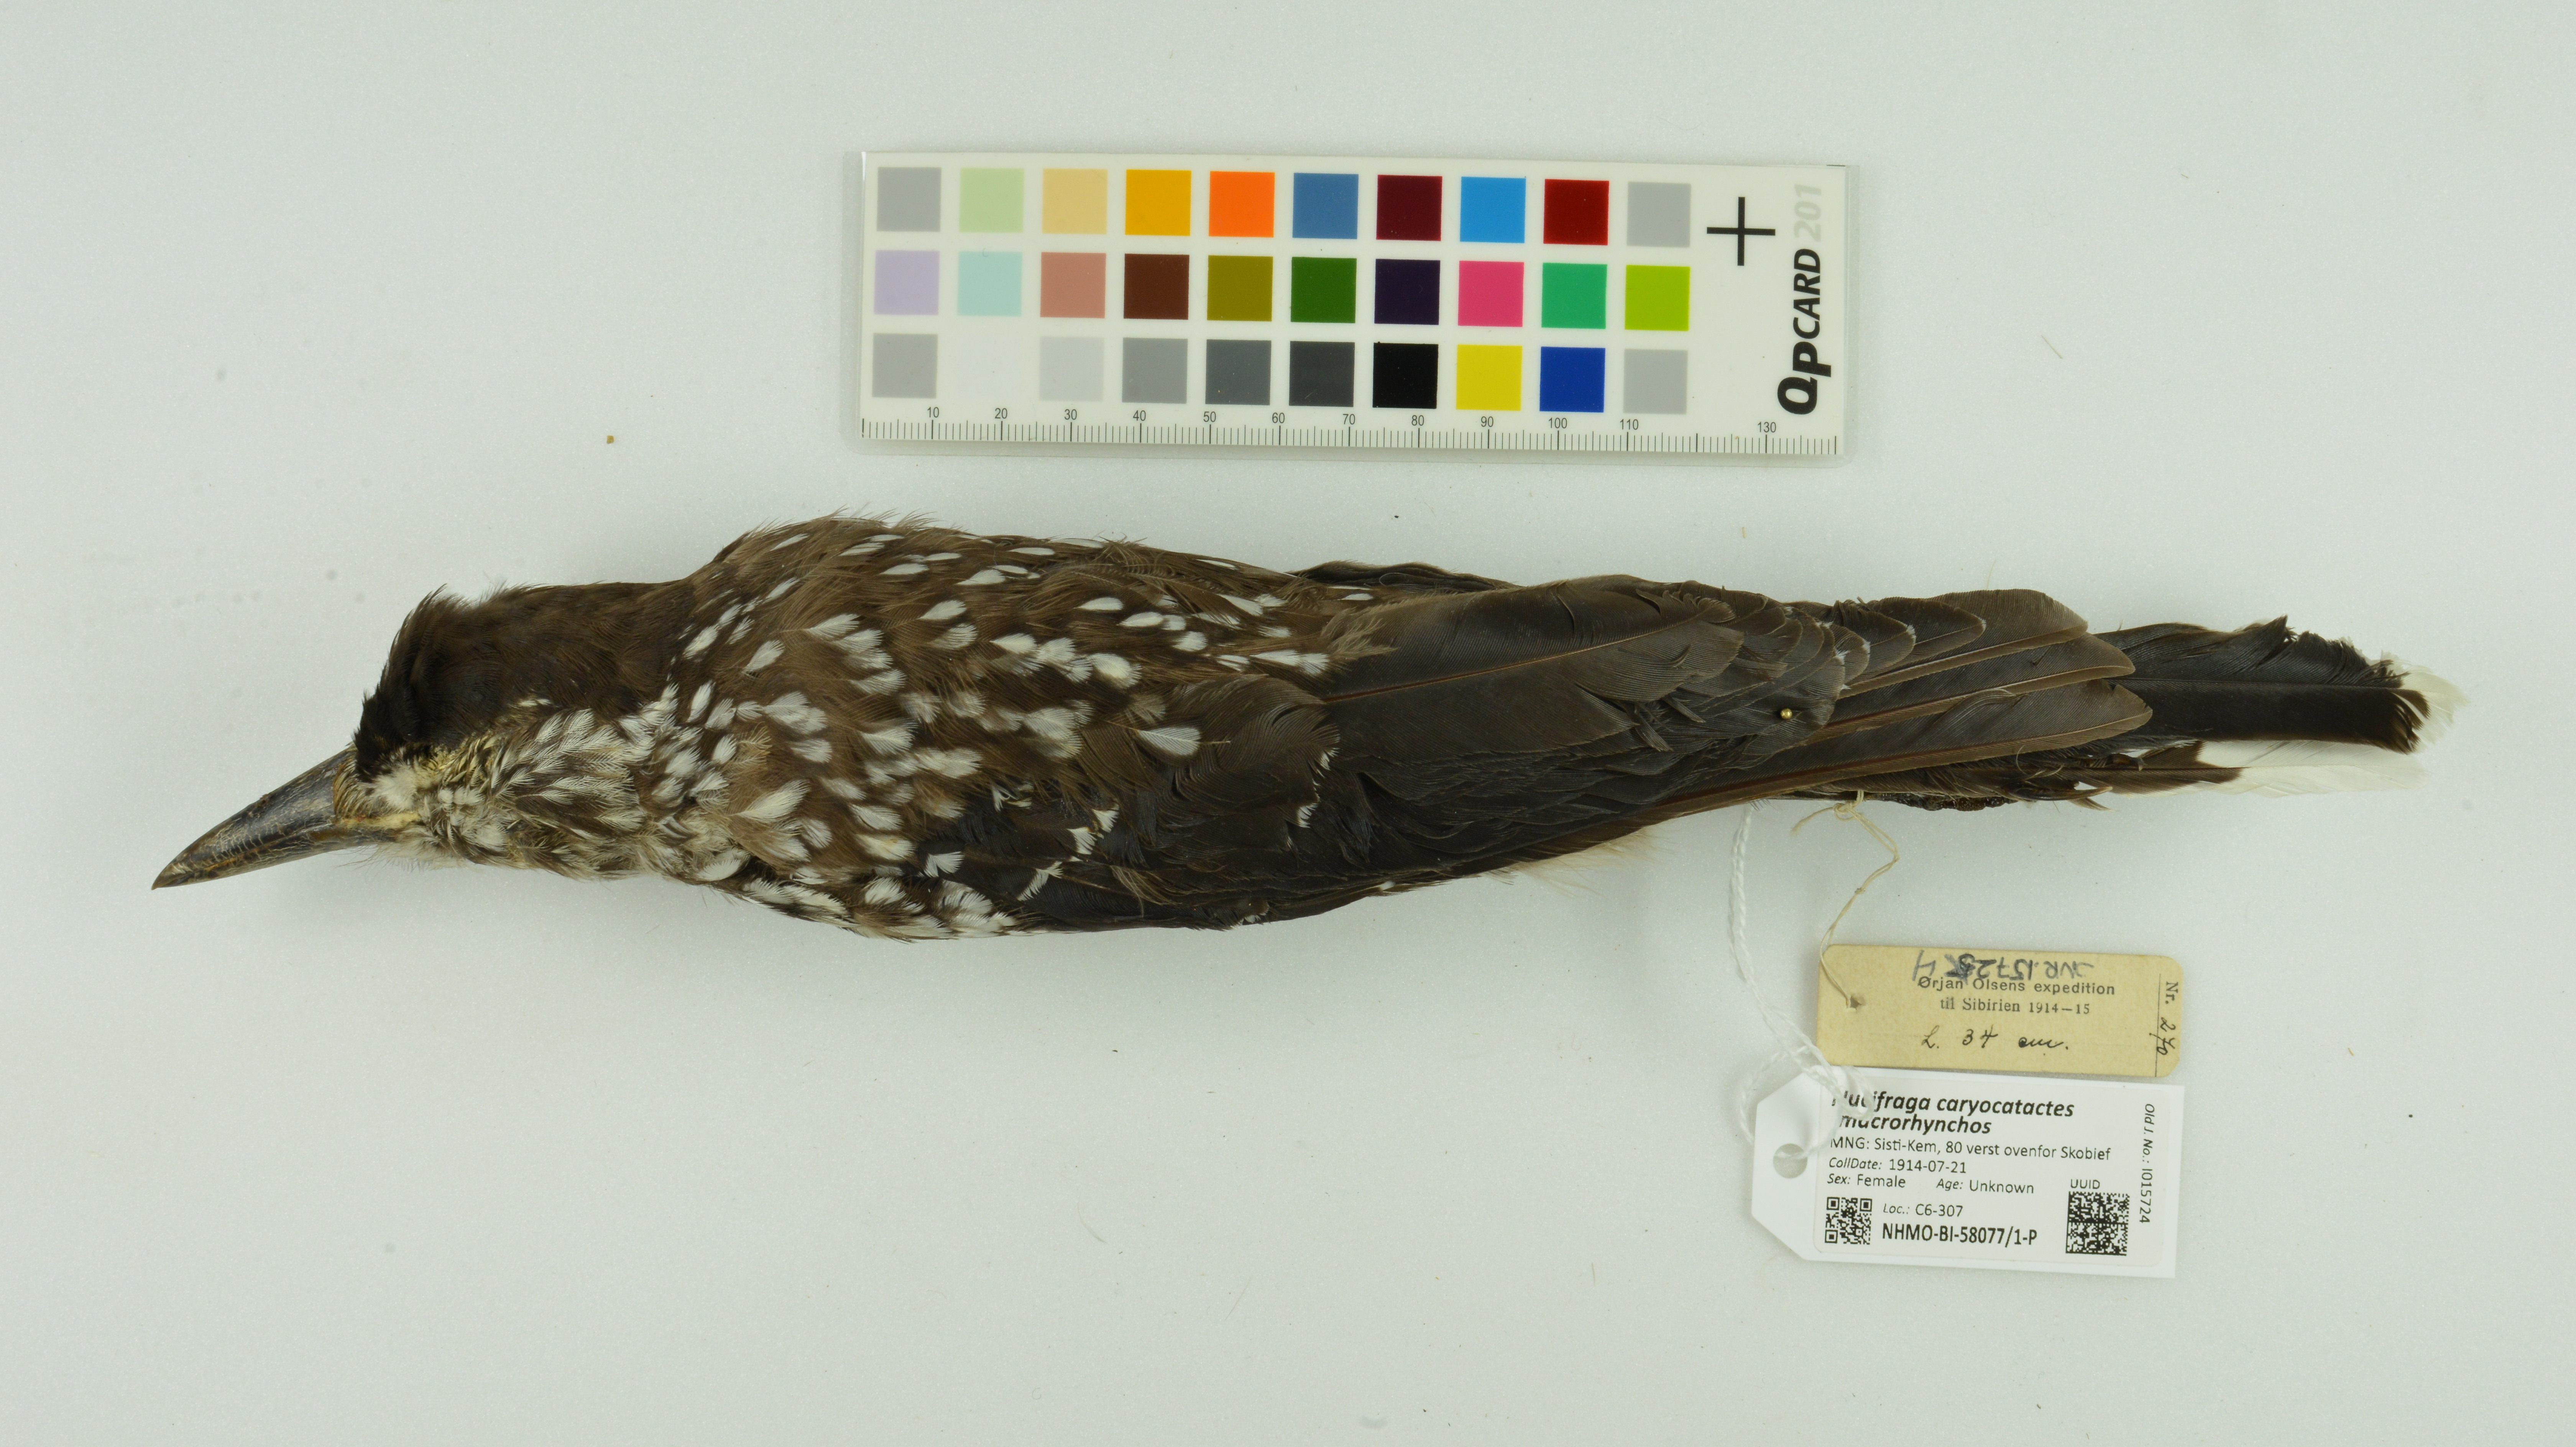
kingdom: Animalia
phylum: Chordata
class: Aves
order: Passeriformes
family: Corvidae
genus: Nucifraga
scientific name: Nucifraga caryocatactes
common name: Spotted nutcracker
